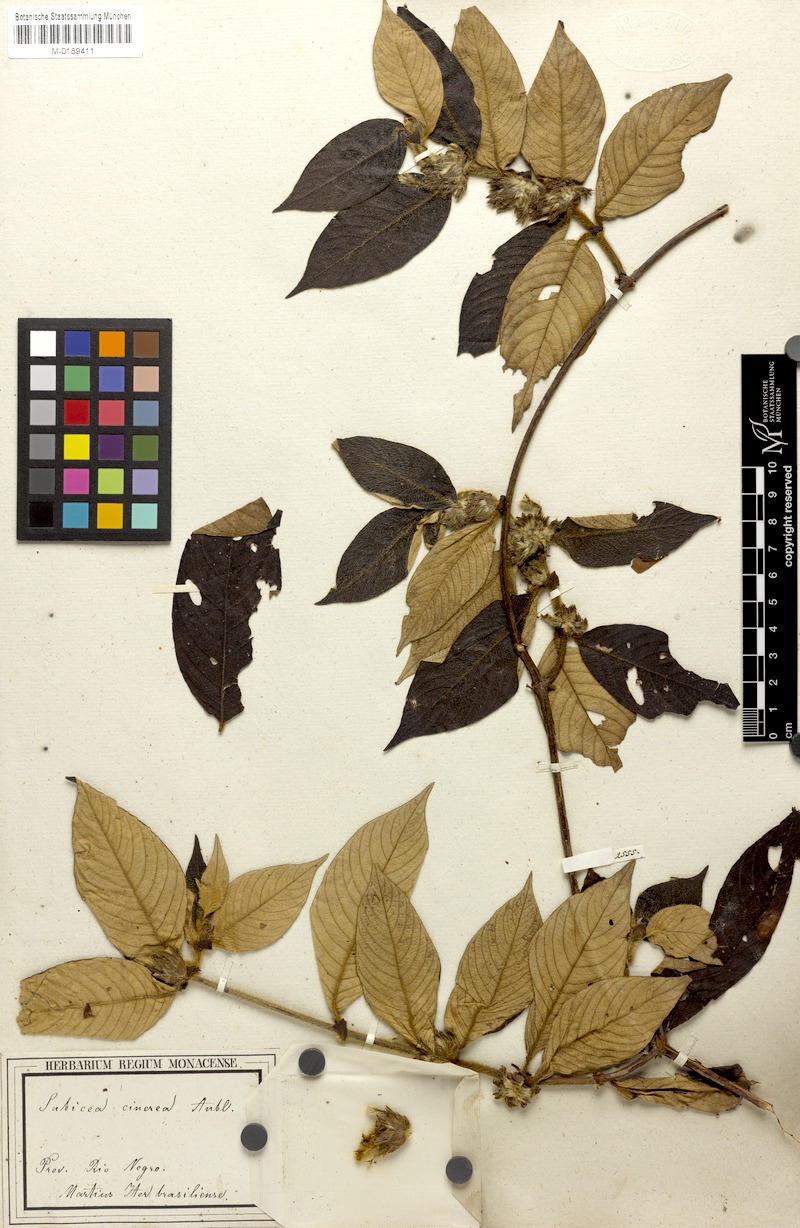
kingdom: Plantae
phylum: Tracheophyta
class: Magnoliopsida
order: Gentianales
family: Rubiaceae
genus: Sabicea
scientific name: Sabicea cinerea
